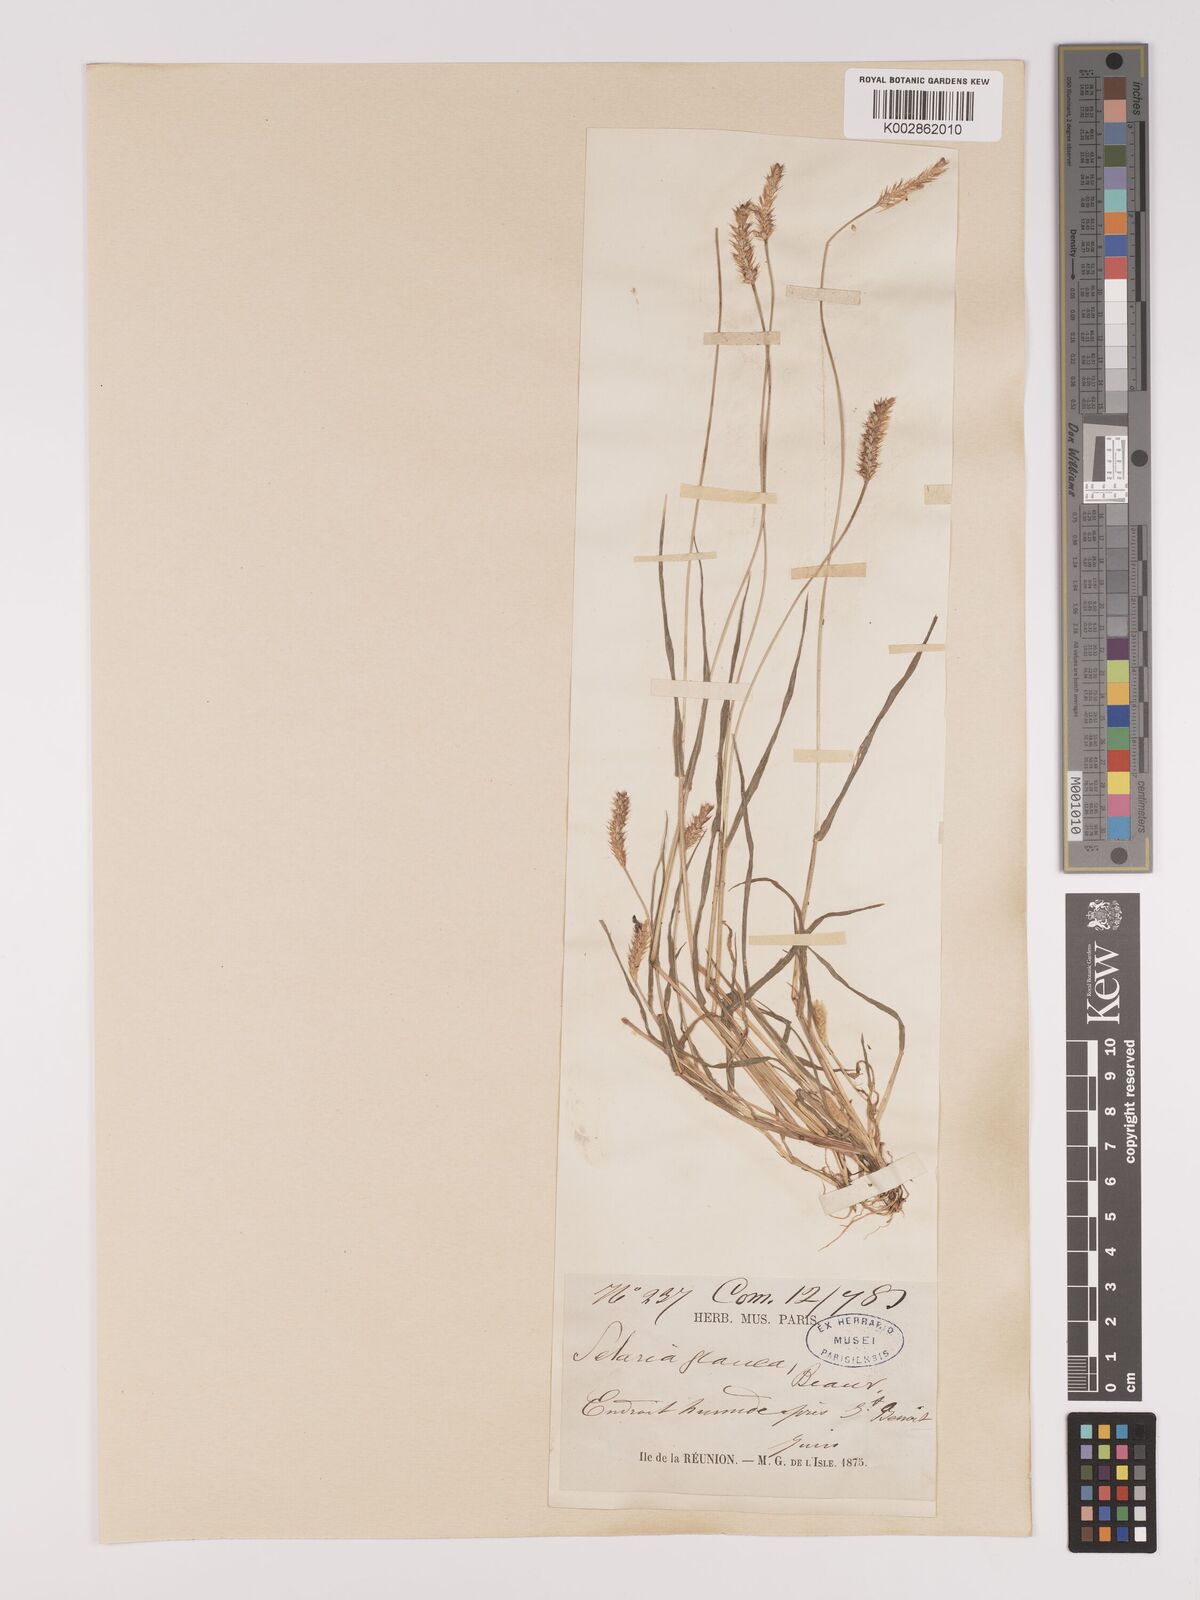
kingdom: Plantae
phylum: Tracheophyta
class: Liliopsida
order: Poales
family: Poaceae
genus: Setaria
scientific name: Setaria pumila
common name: Yellow bristle-grass
